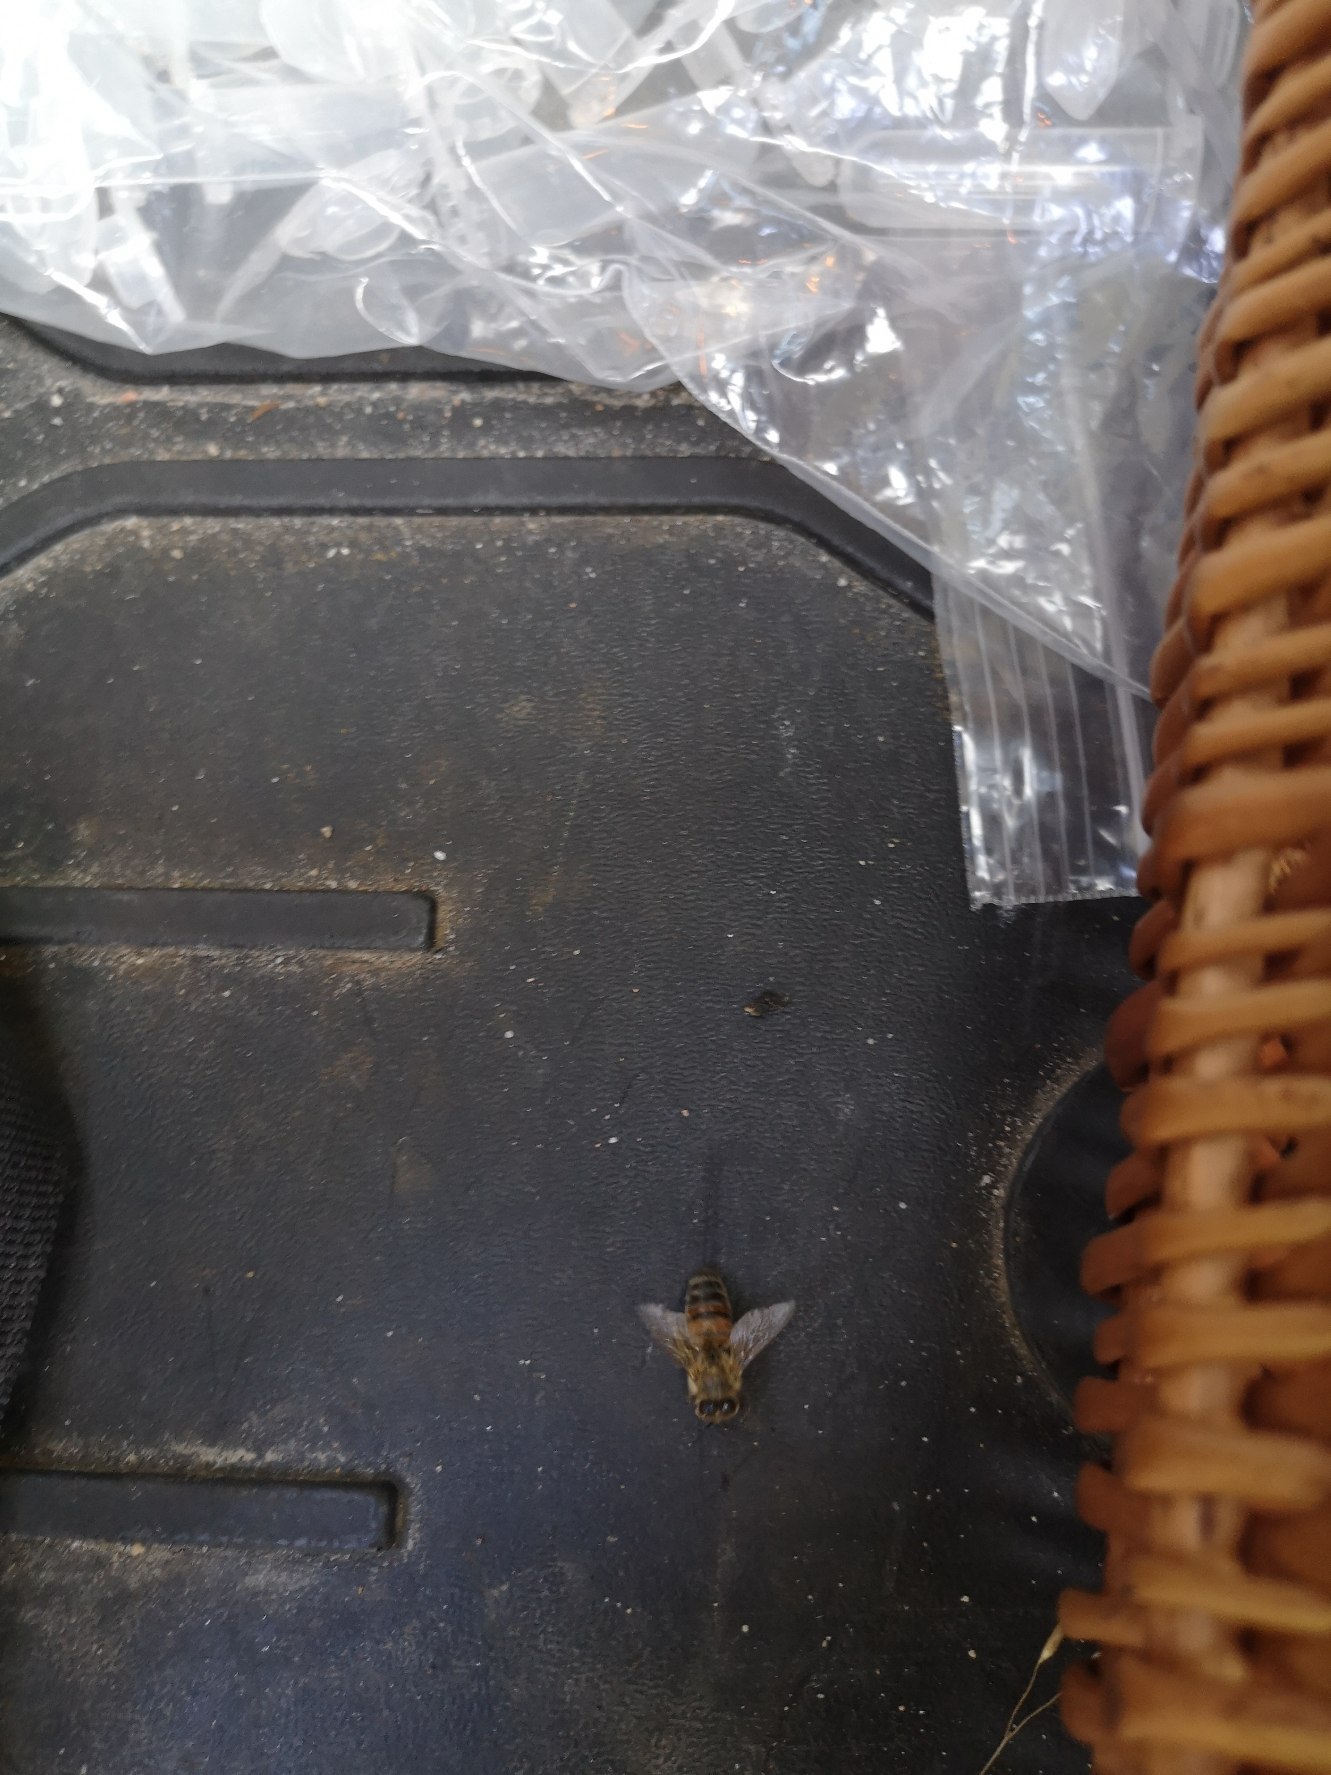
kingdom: Animalia
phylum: Arthropoda
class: Insecta
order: Hymenoptera
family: Apidae
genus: Apis
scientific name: Apis mellifera
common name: Honningbi
